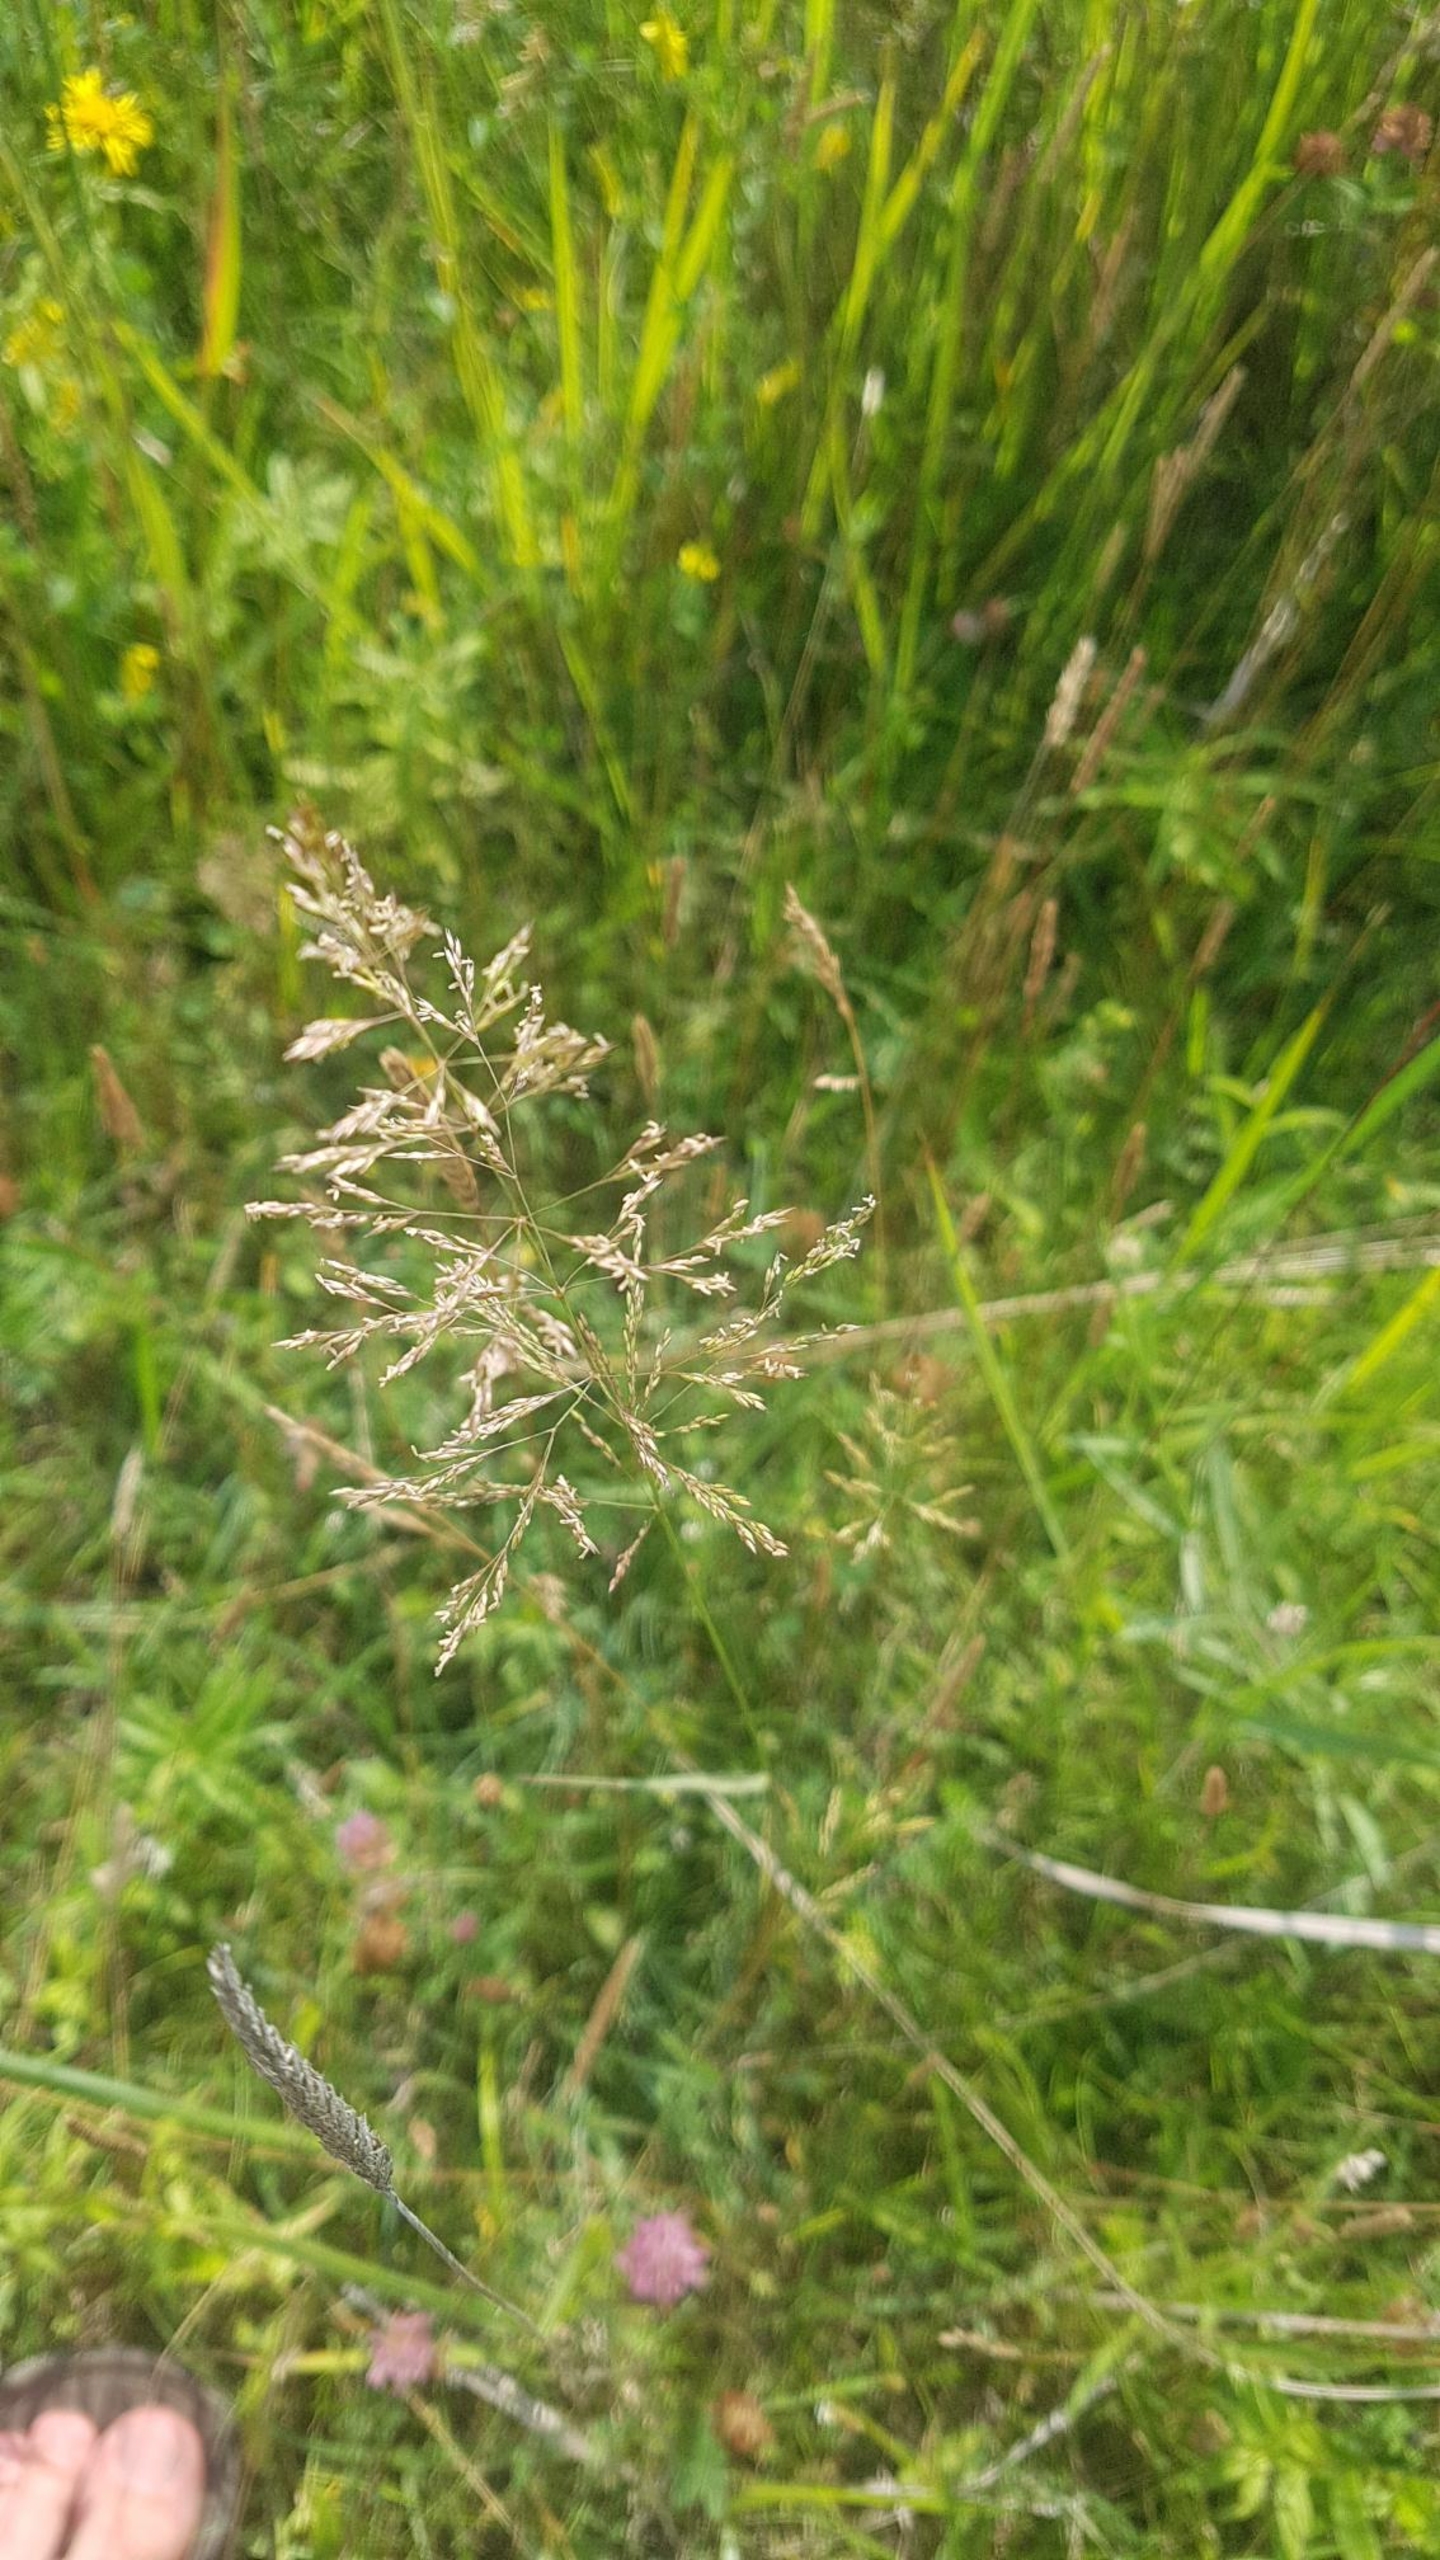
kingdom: Plantae
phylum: Tracheophyta
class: Liliopsida
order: Poales
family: Poaceae
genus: Agrostis
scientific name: Agrostis gigantea
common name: Stortoppet hvene
